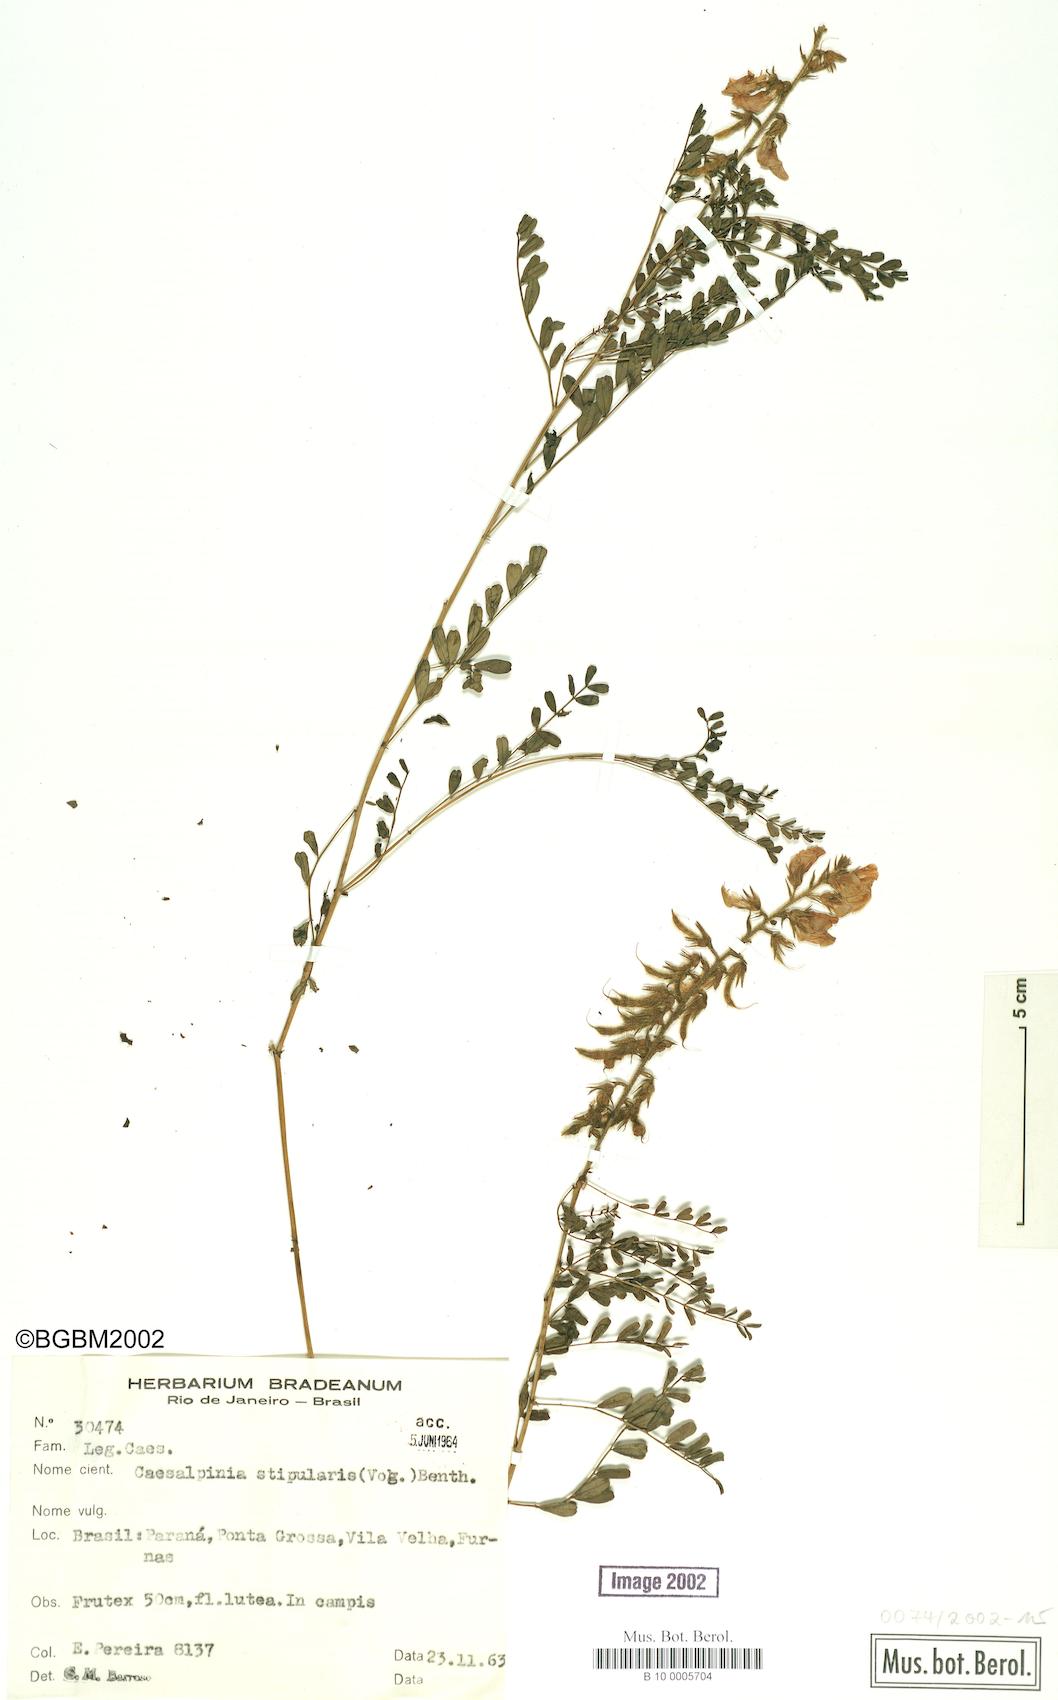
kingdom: Plantae
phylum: Tracheophyta
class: Magnoliopsida
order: Fabales
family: Fabaceae
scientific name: Fabaceae
